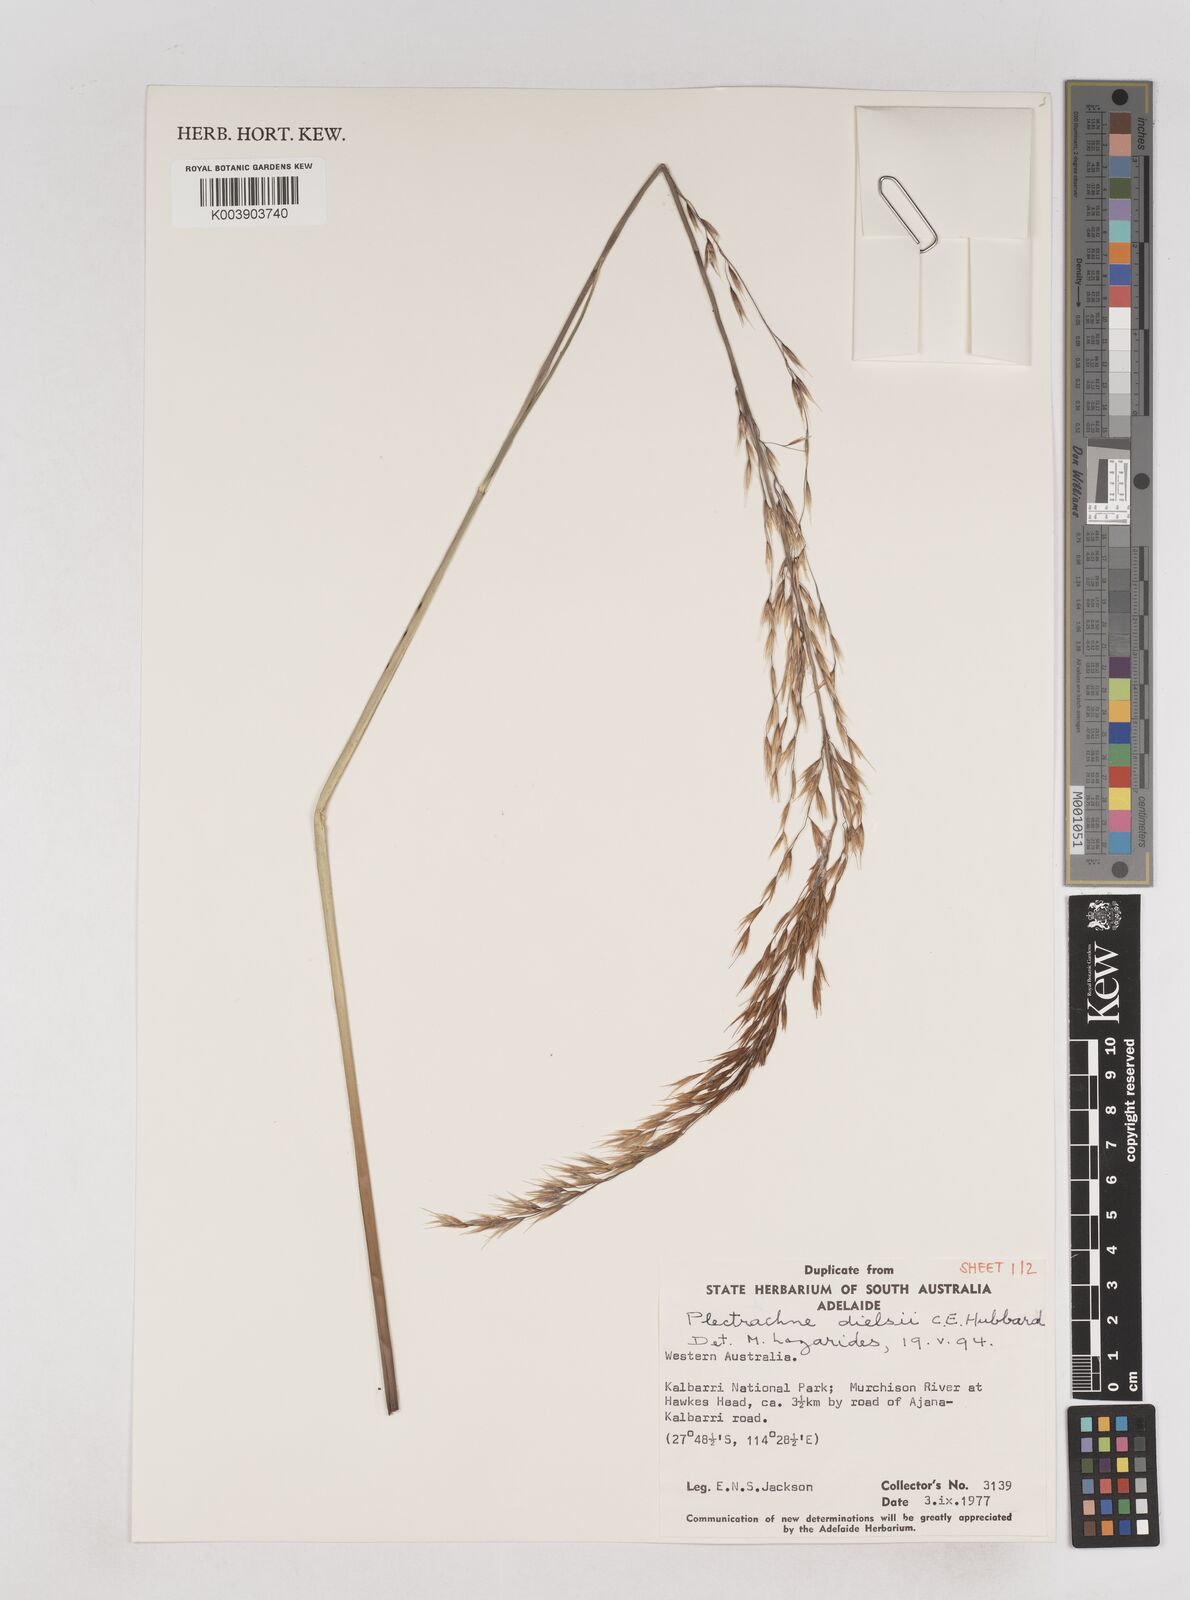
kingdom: Plantae
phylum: Tracheophyta
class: Liliopsida
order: Poales
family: Poaceae
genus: Triodia
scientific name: Triodia dielsii
